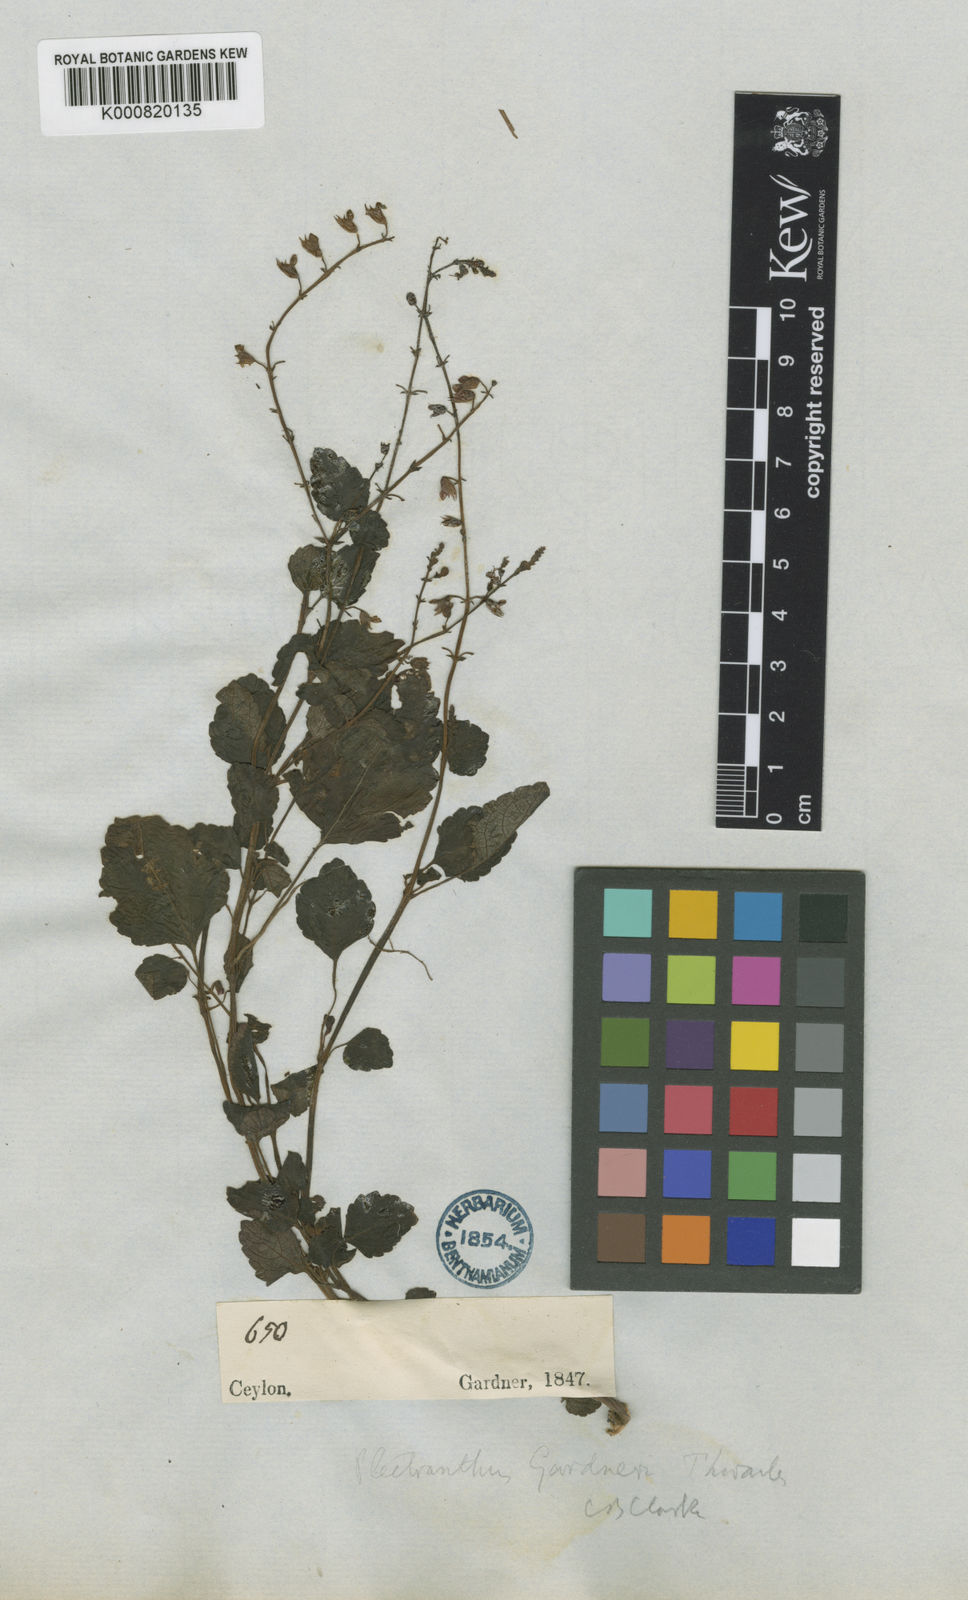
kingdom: Plantae
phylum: Tracheophyta
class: Magnoliopsida
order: Lamiales
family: Lamiaceae
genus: Plectranthus
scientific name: Plectranthus gardneri
